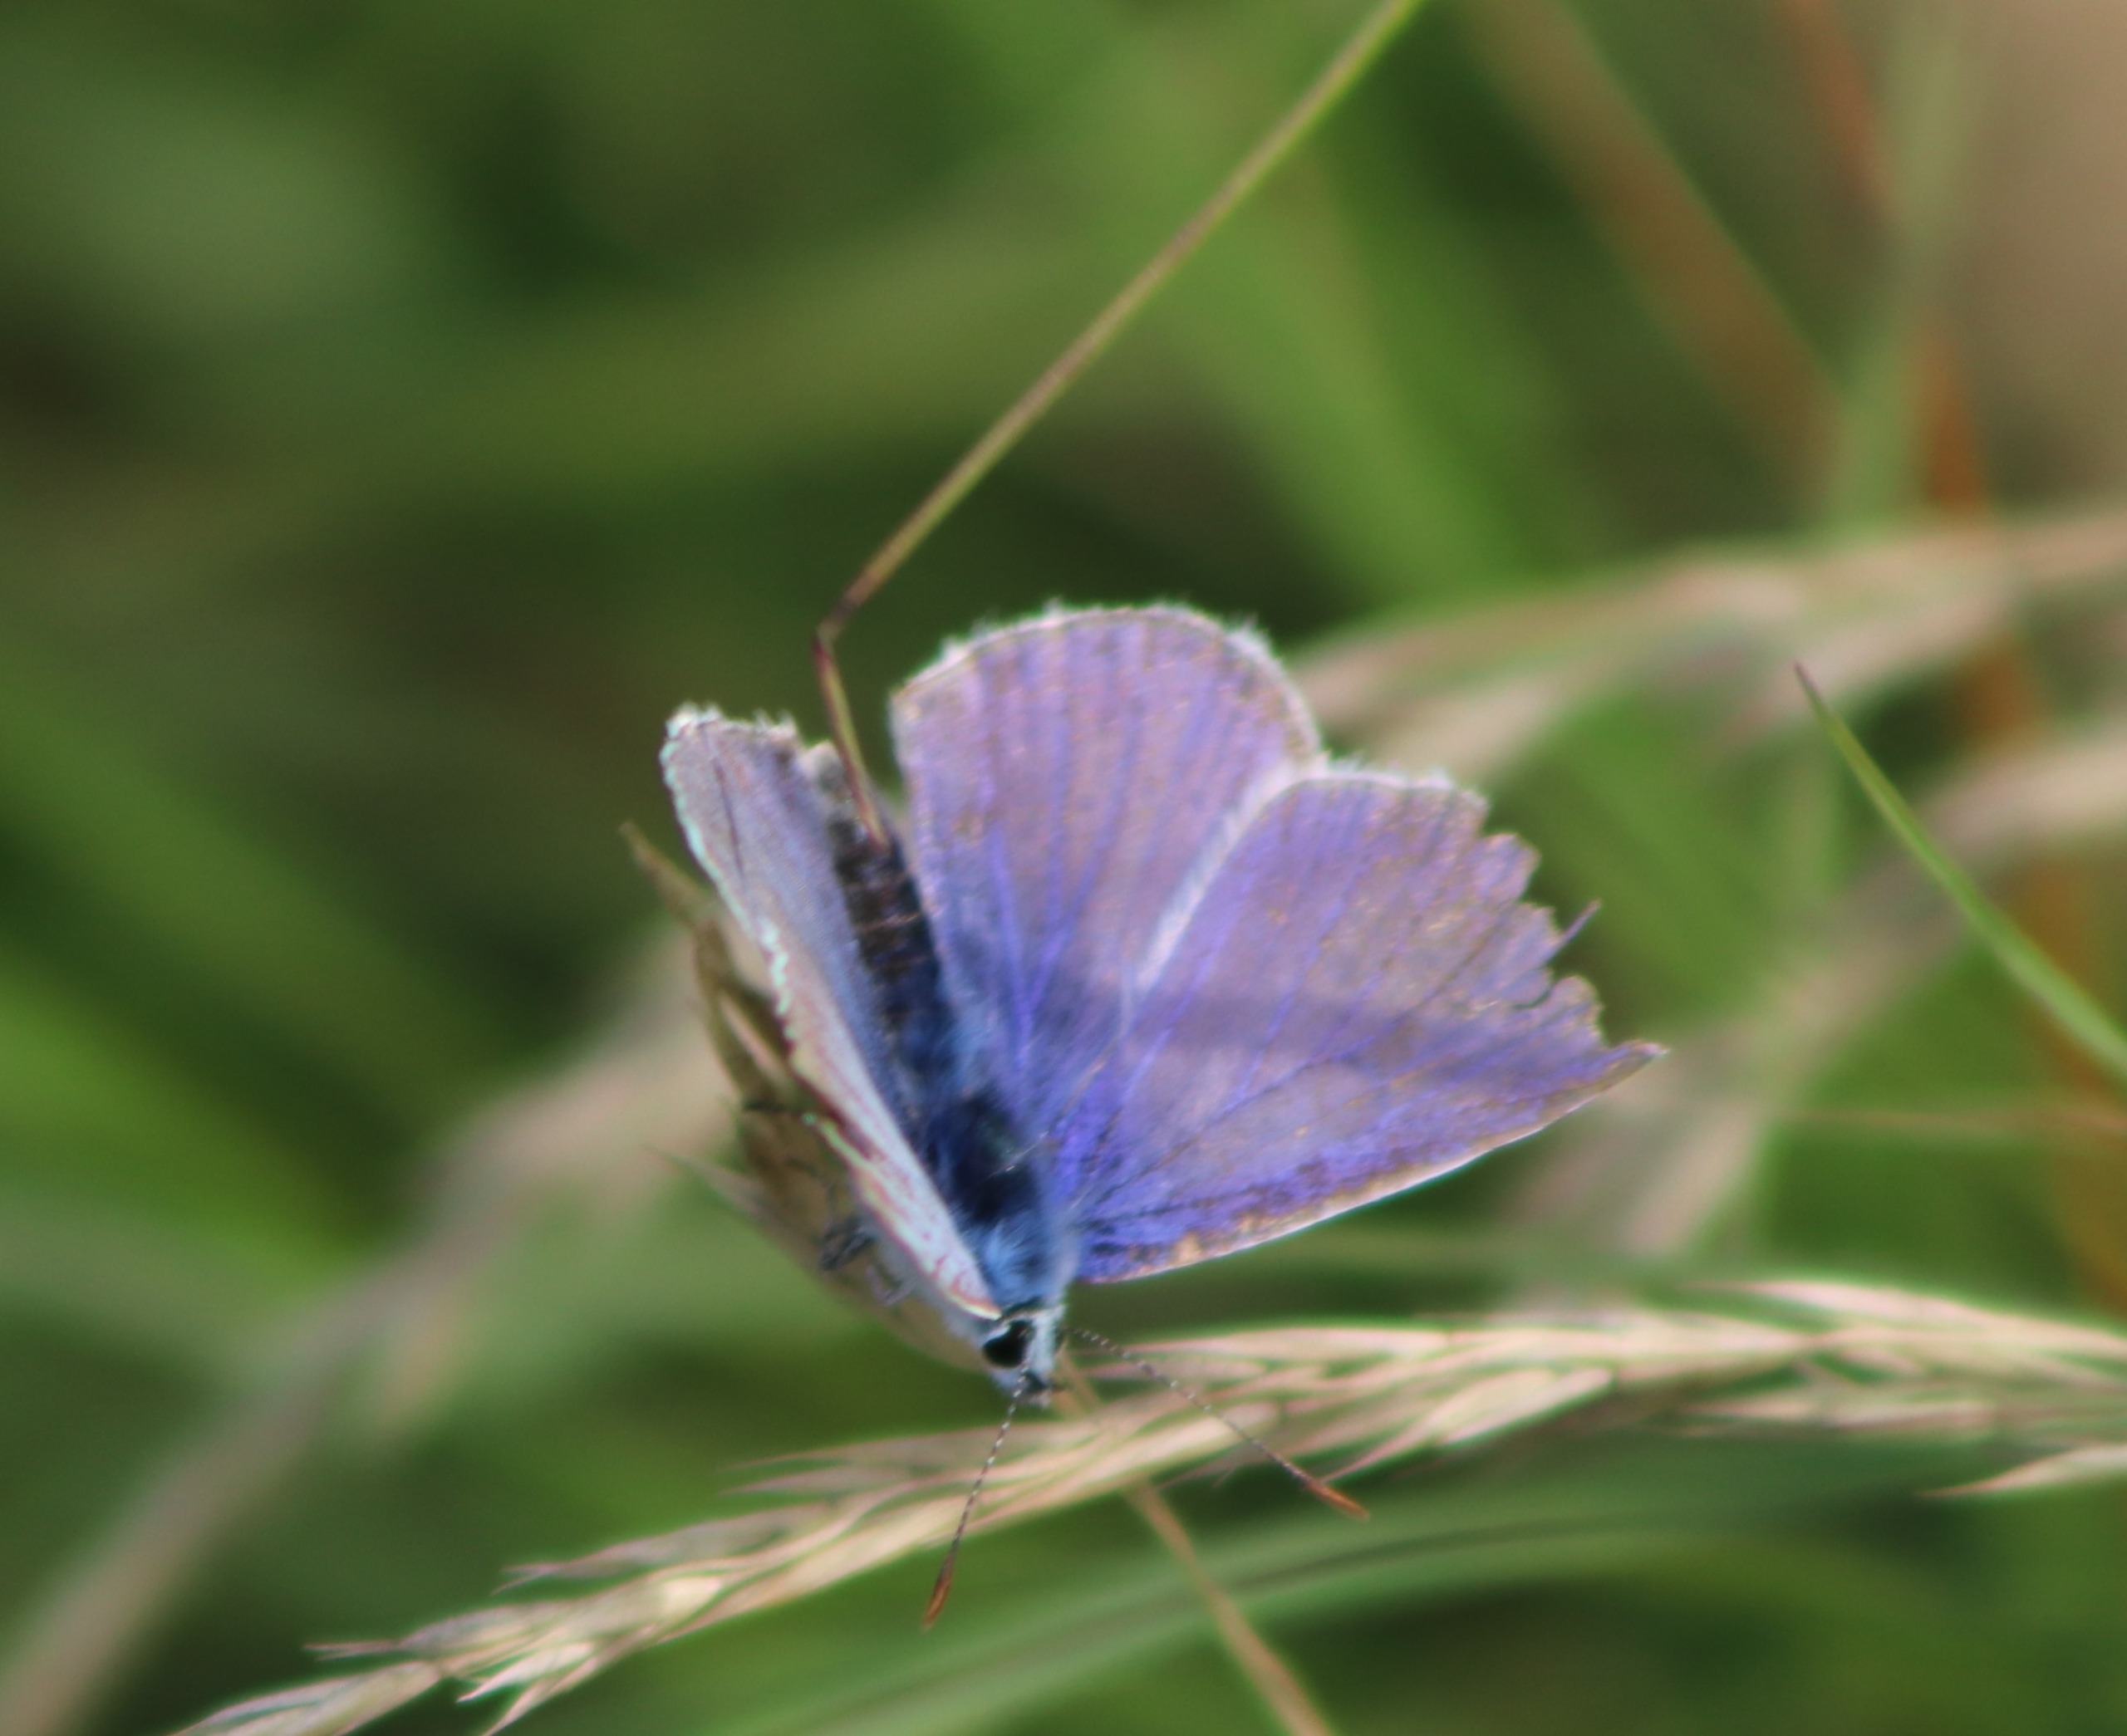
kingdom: Animalia
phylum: Arthropoda
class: Insecta
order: Lepidoptera
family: Lycaenidae
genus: Polyommatus
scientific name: Polyommatus icarus
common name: Almindelig blåfugl
